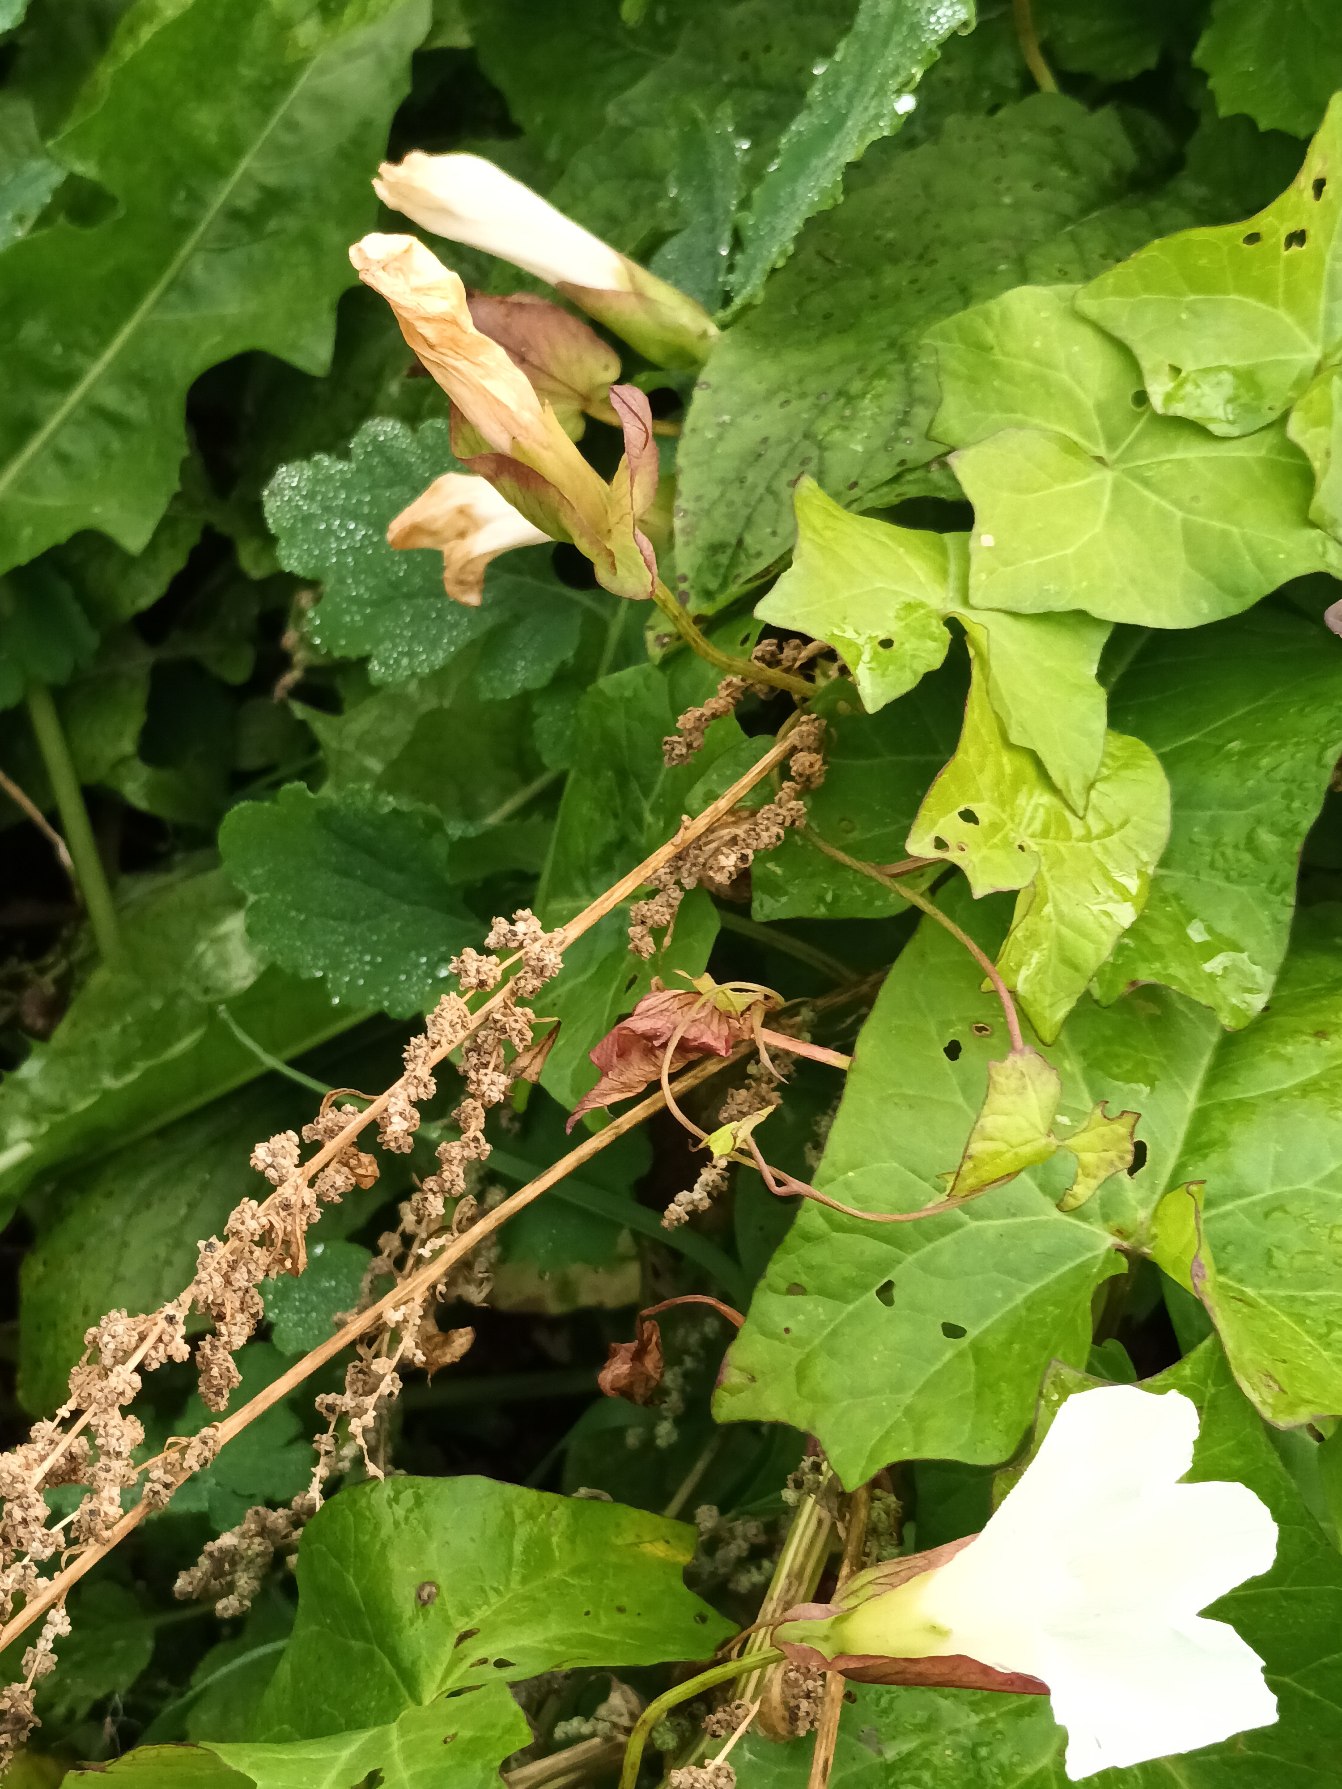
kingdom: Plantae
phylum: Tracheophyta
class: Magnoliopsida
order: Solanales
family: Convolvulaceae
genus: Calystegia
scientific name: Calystegia sepium
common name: Gærde-snerle
